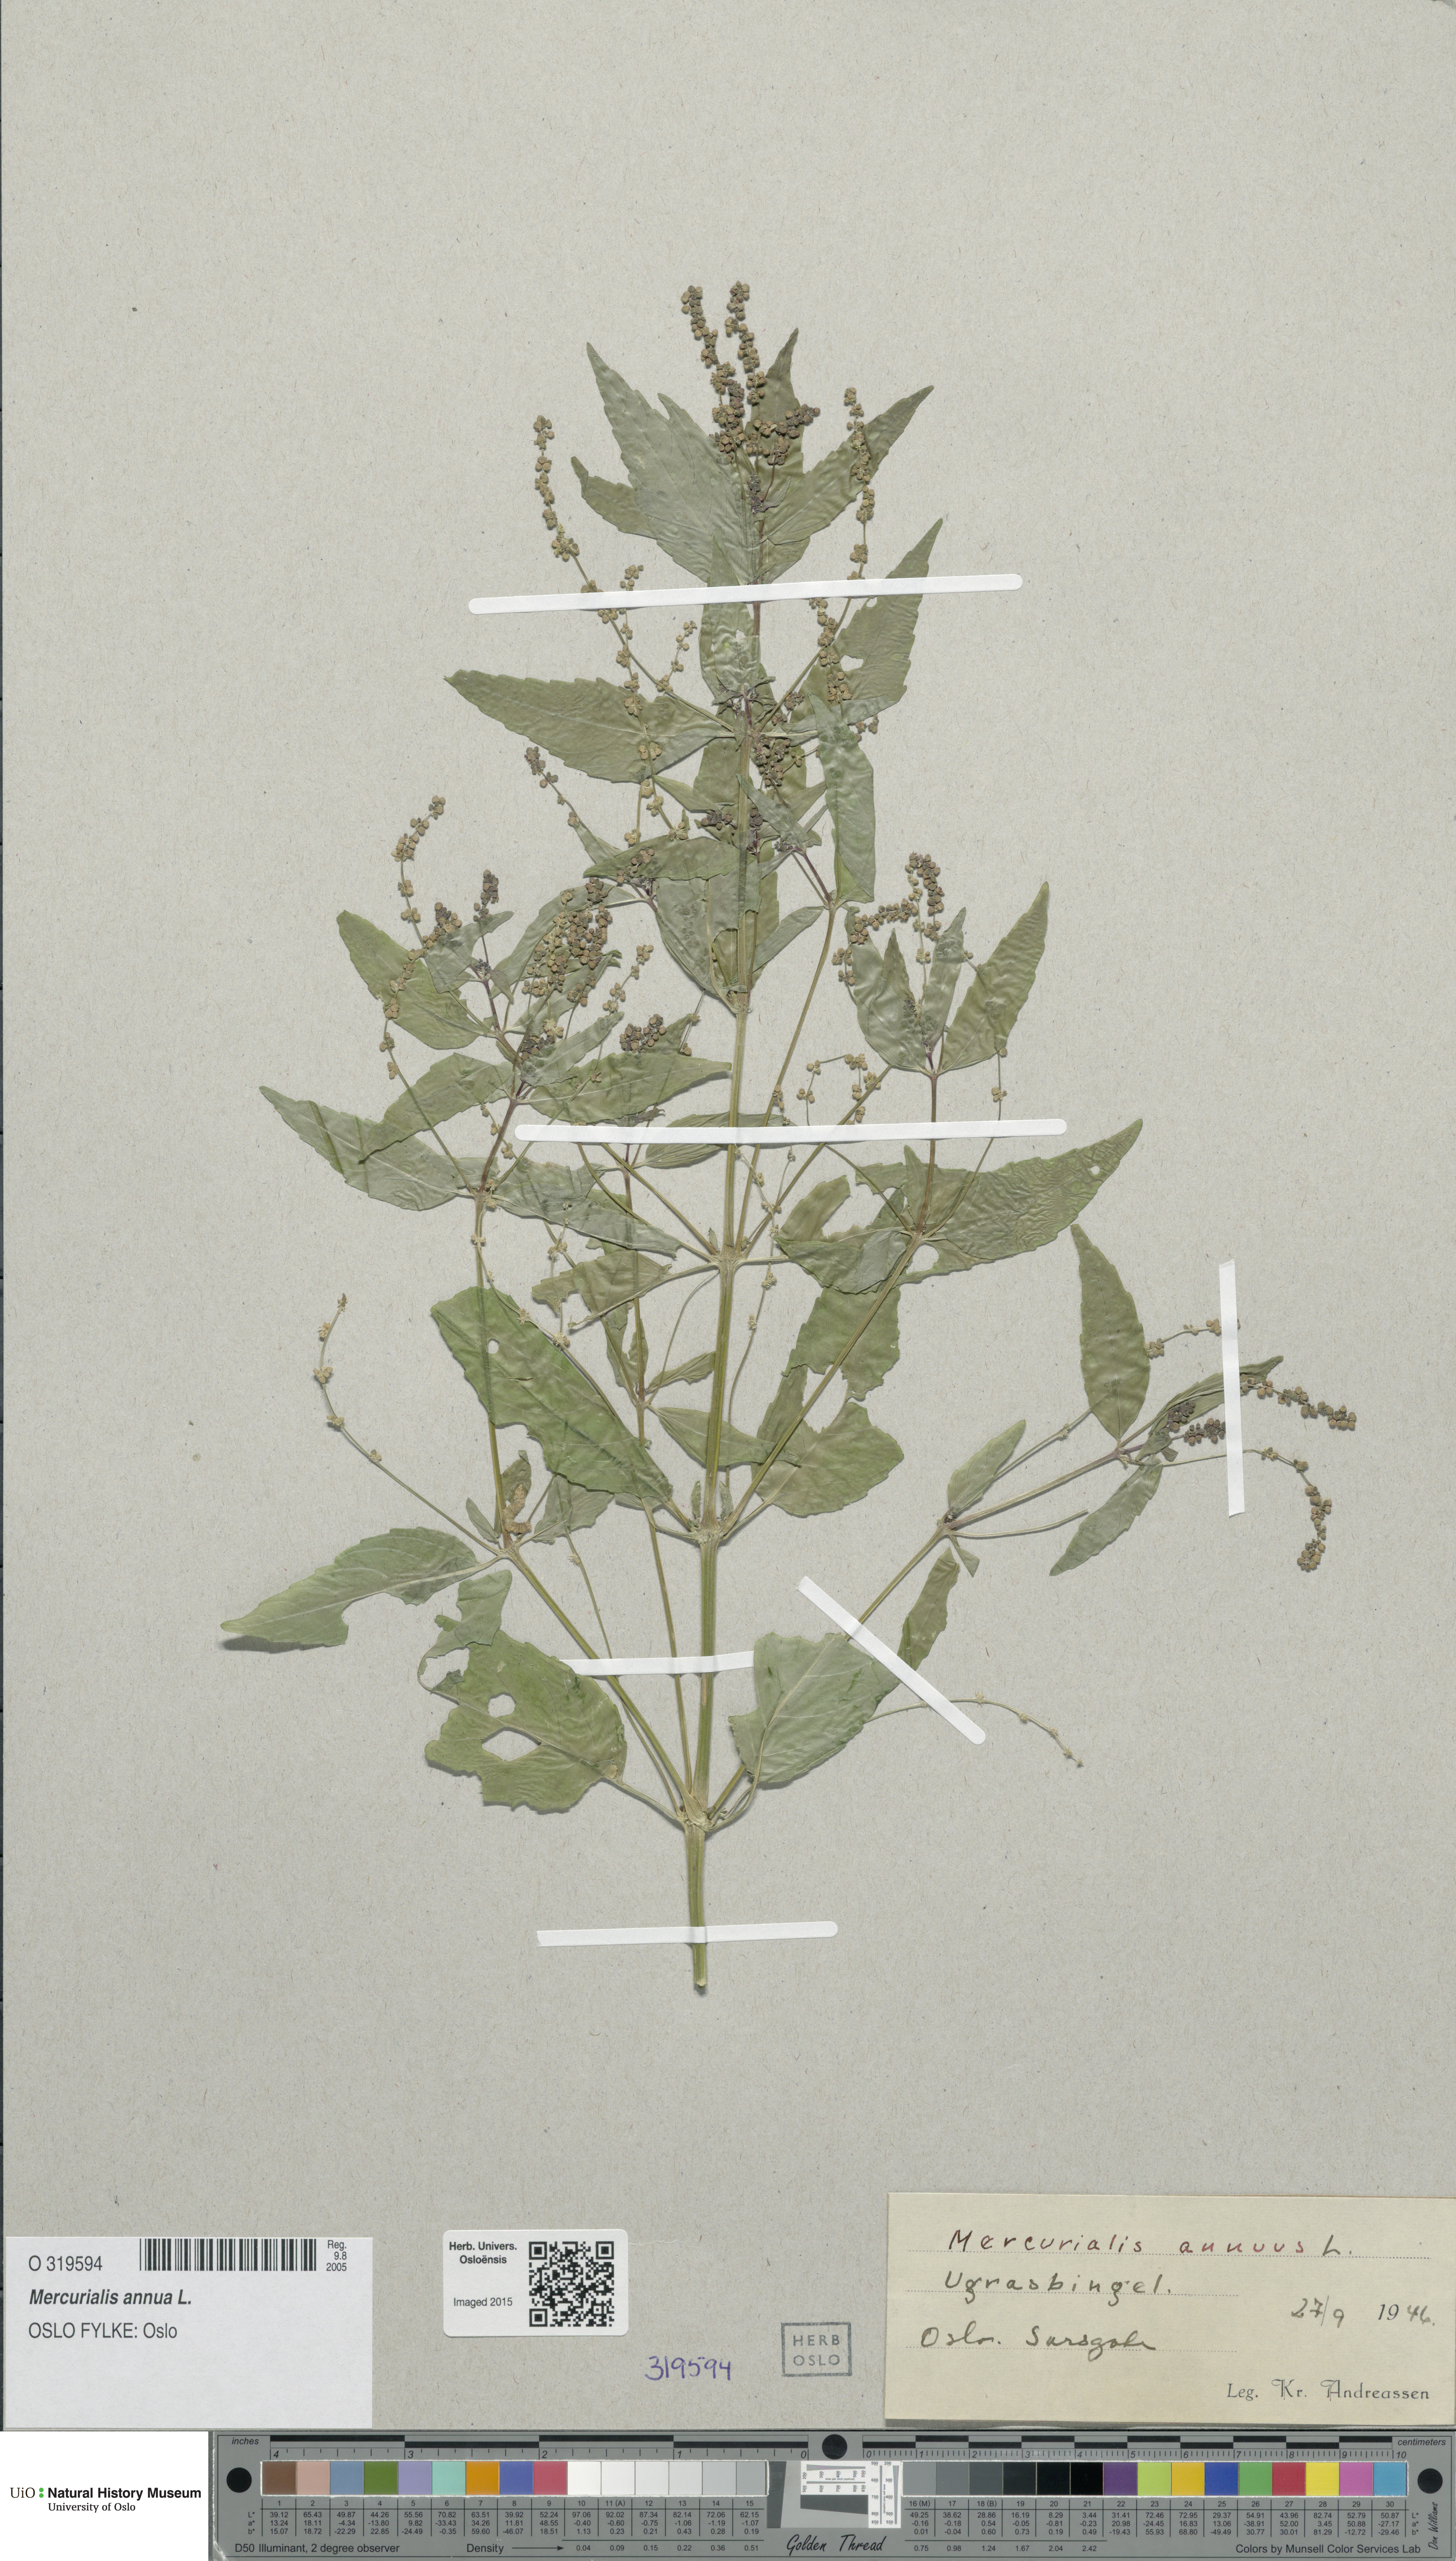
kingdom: Plantae
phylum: Tracheophyta
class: Magnoliopsida
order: Malpighiales
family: Euphorbiaceae
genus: Mercurialis
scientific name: Mercurialis annua
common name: Annual mercury
